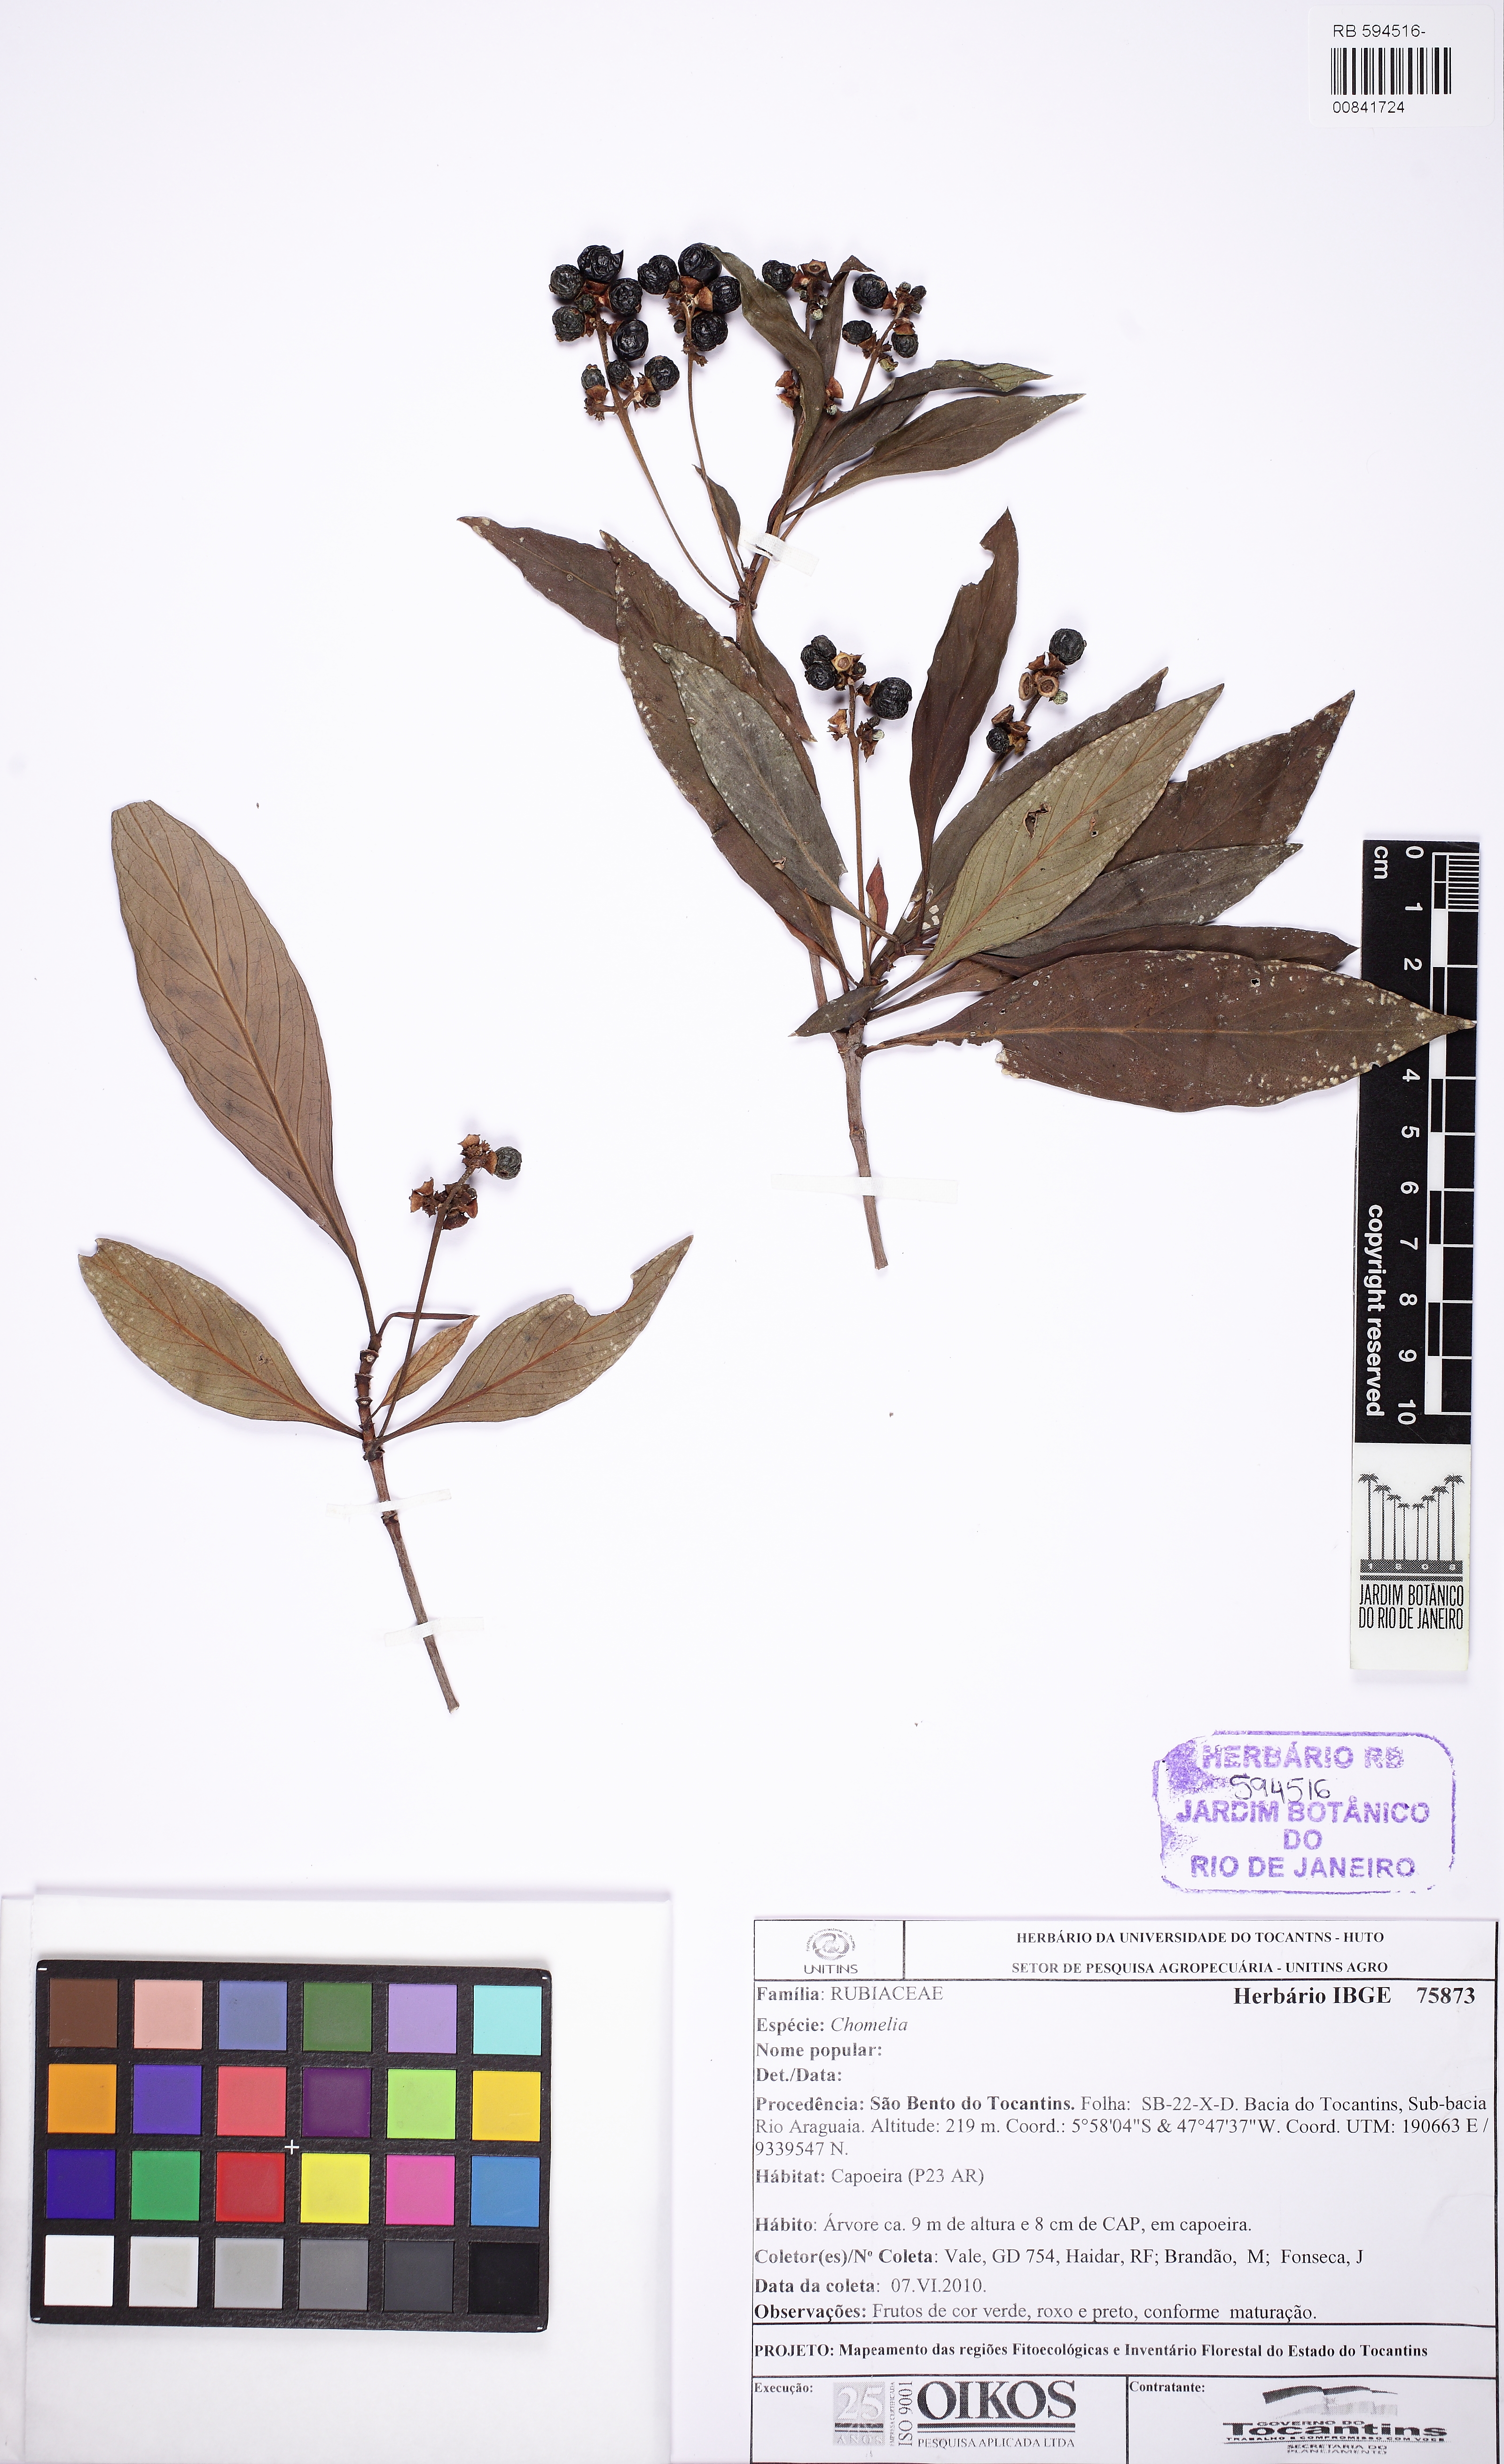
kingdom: Plantae
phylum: Tracheophyta
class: Magnoliopsida
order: Gentianales
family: Rubiaceae
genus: Pagamea
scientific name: Pagamea guianensis
